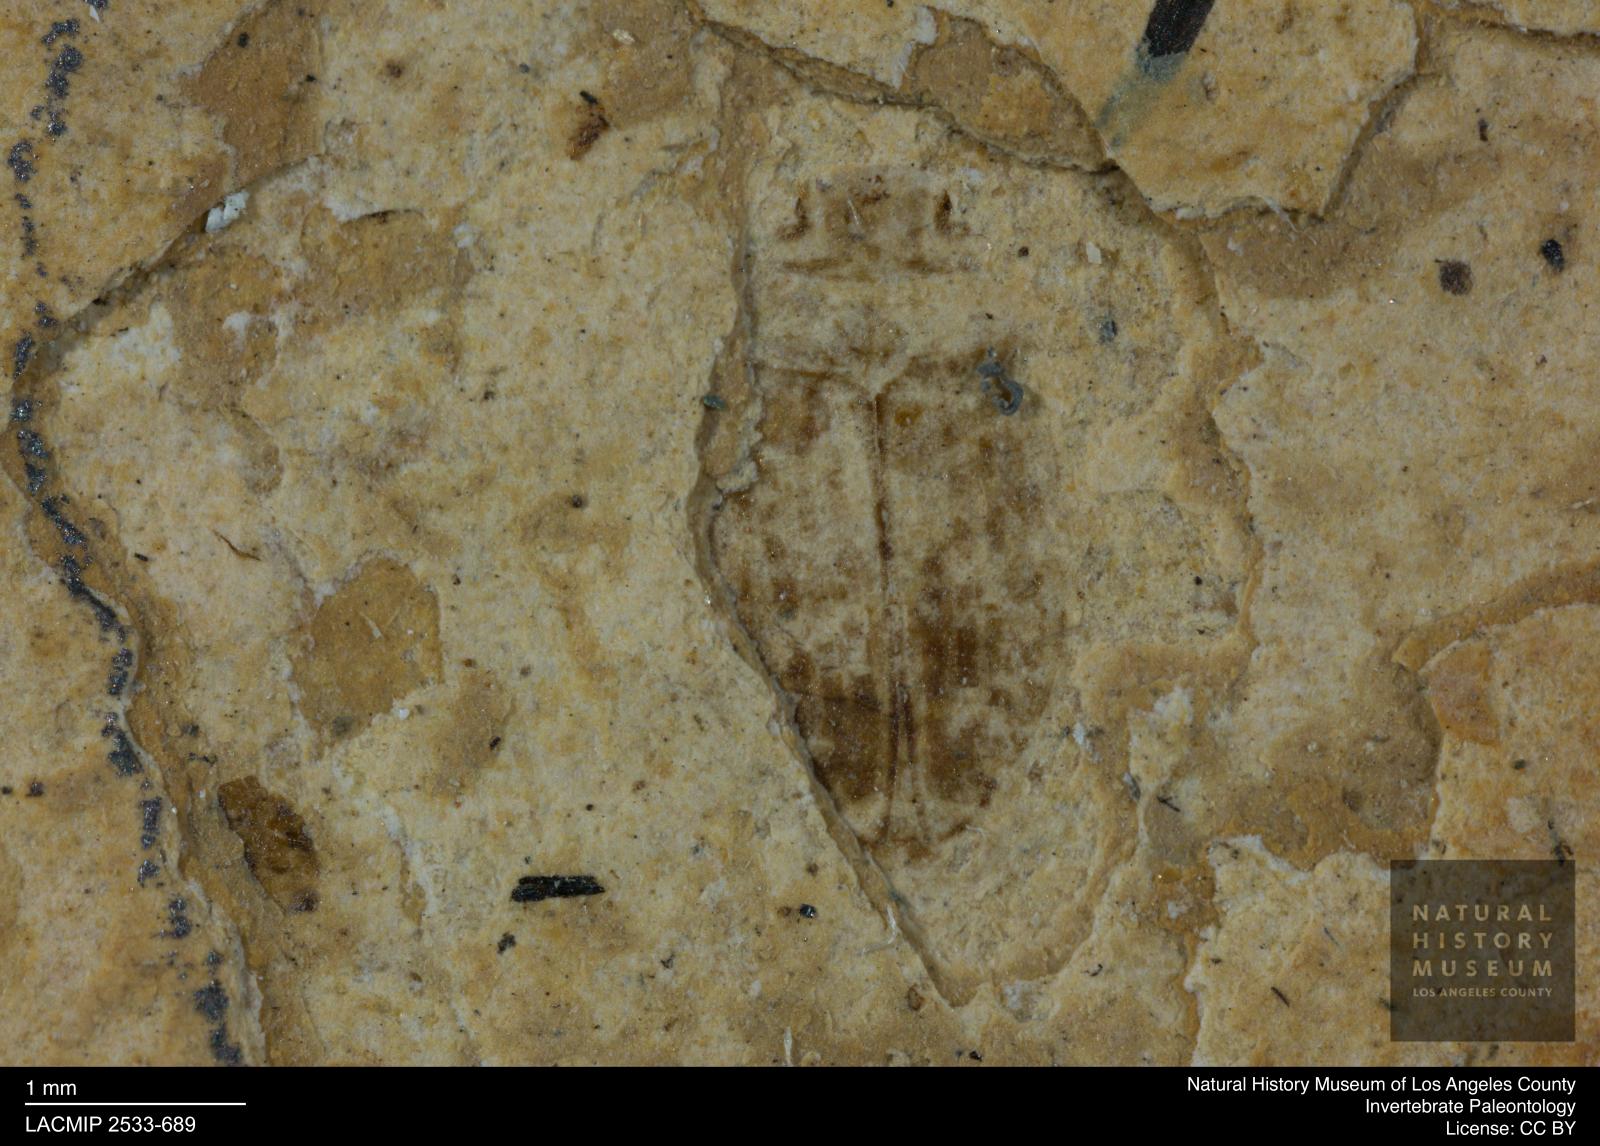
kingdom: Animalia
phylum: Arthropoda
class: Insecta
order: Coleoptera
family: Dytiscidae
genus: Oreodytes
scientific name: Oreodytes cryptolineatus
